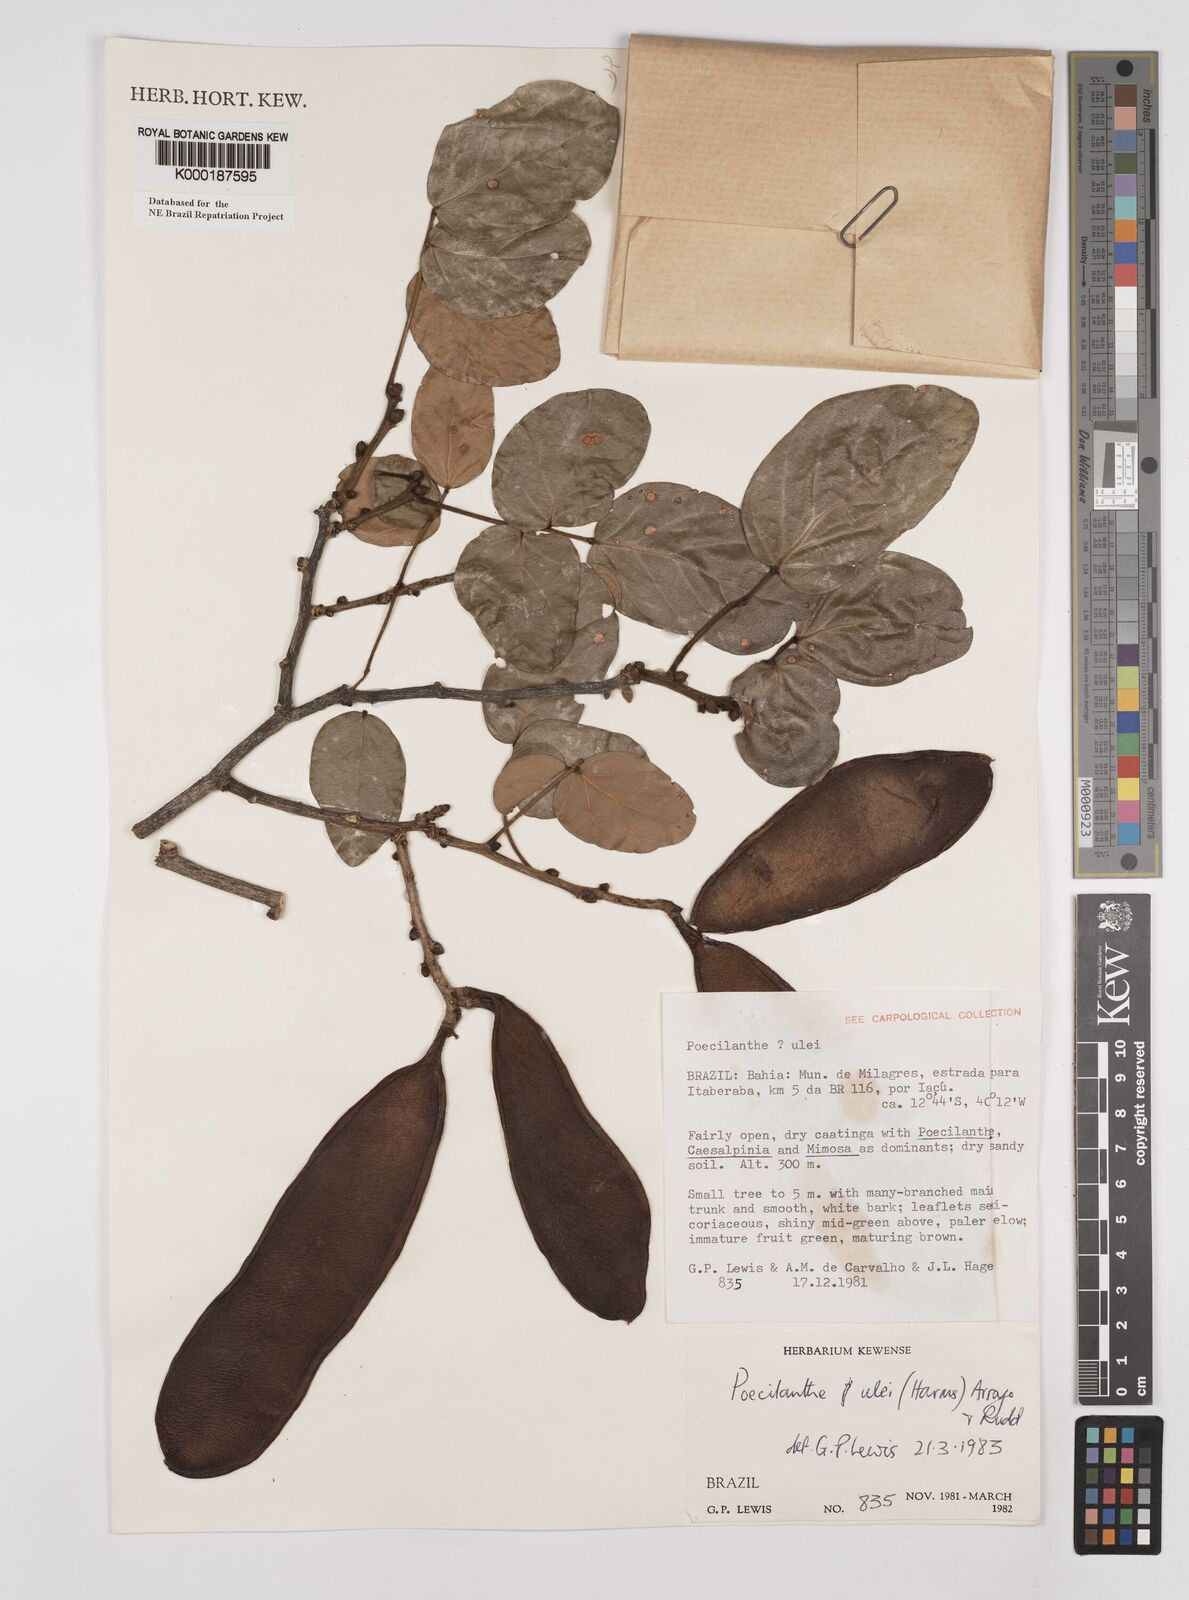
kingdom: Plantae
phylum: Tracheophyta
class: Magnoliopsida
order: Fabales
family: Fabaceae
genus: Poecilanthe
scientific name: Poecilanthe ulei
